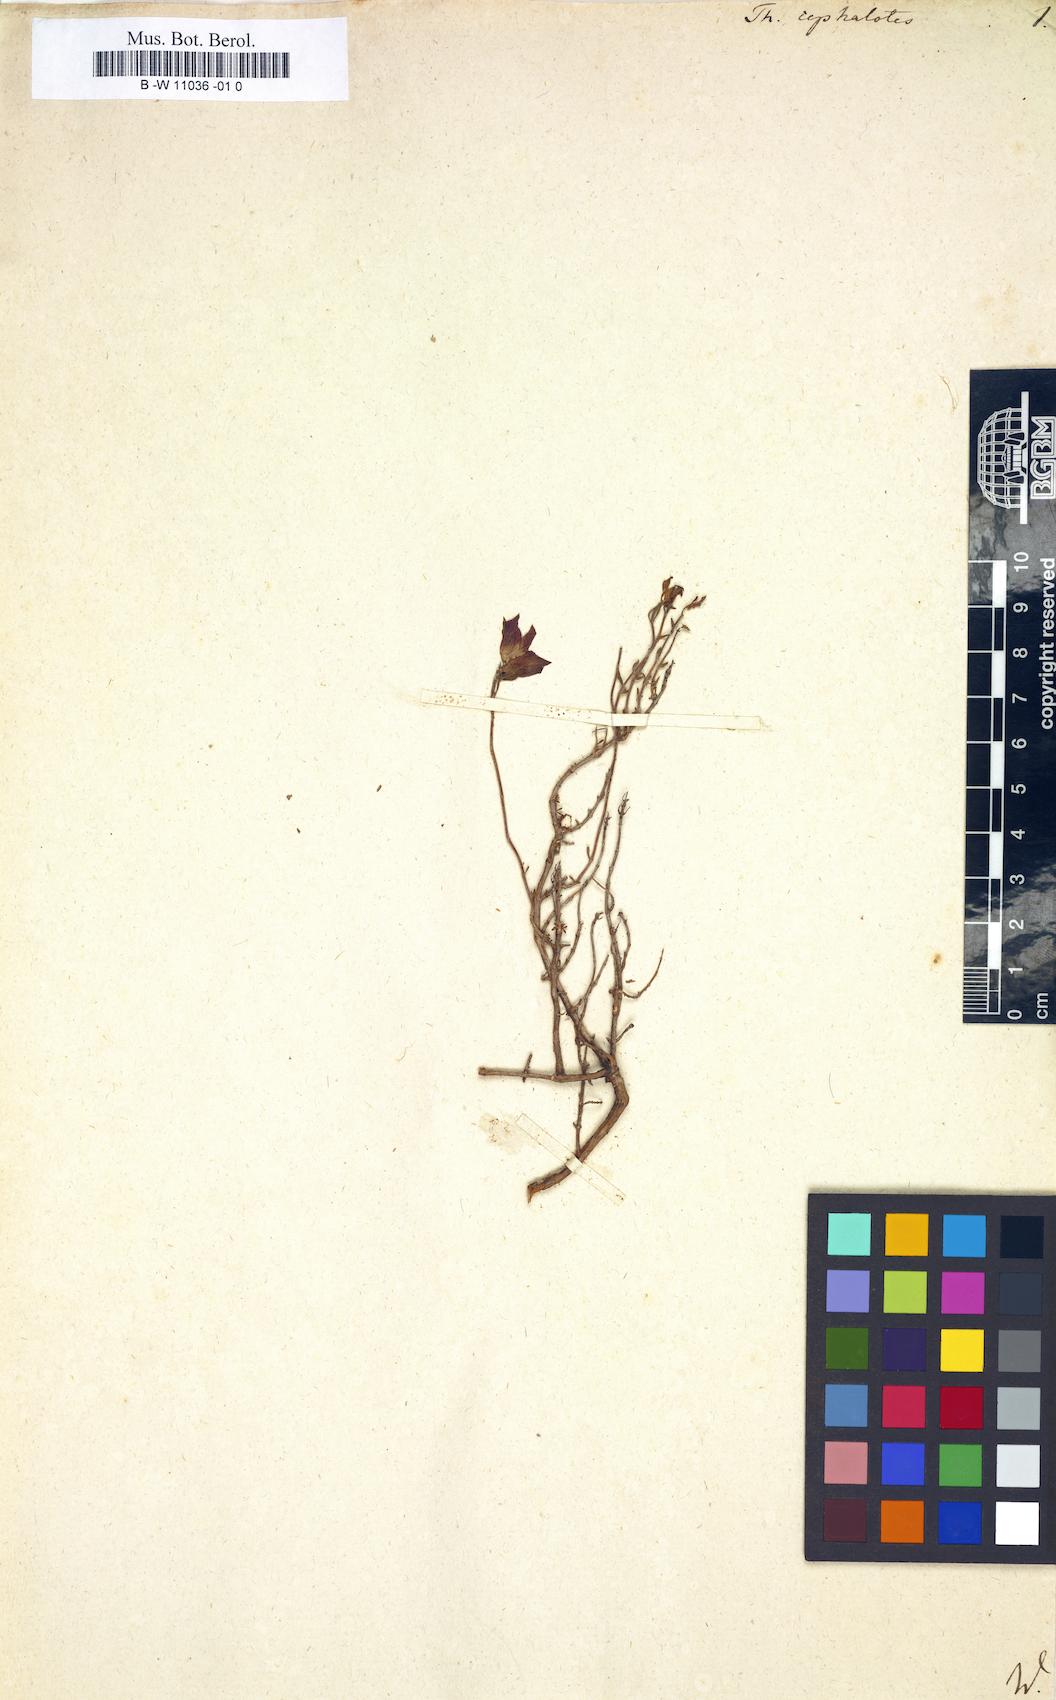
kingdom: Plantae
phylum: Tracheophyta
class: Magnoliopsida
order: Lamiales
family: Lamiaceae
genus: Thymus
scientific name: Thymus moroderi
